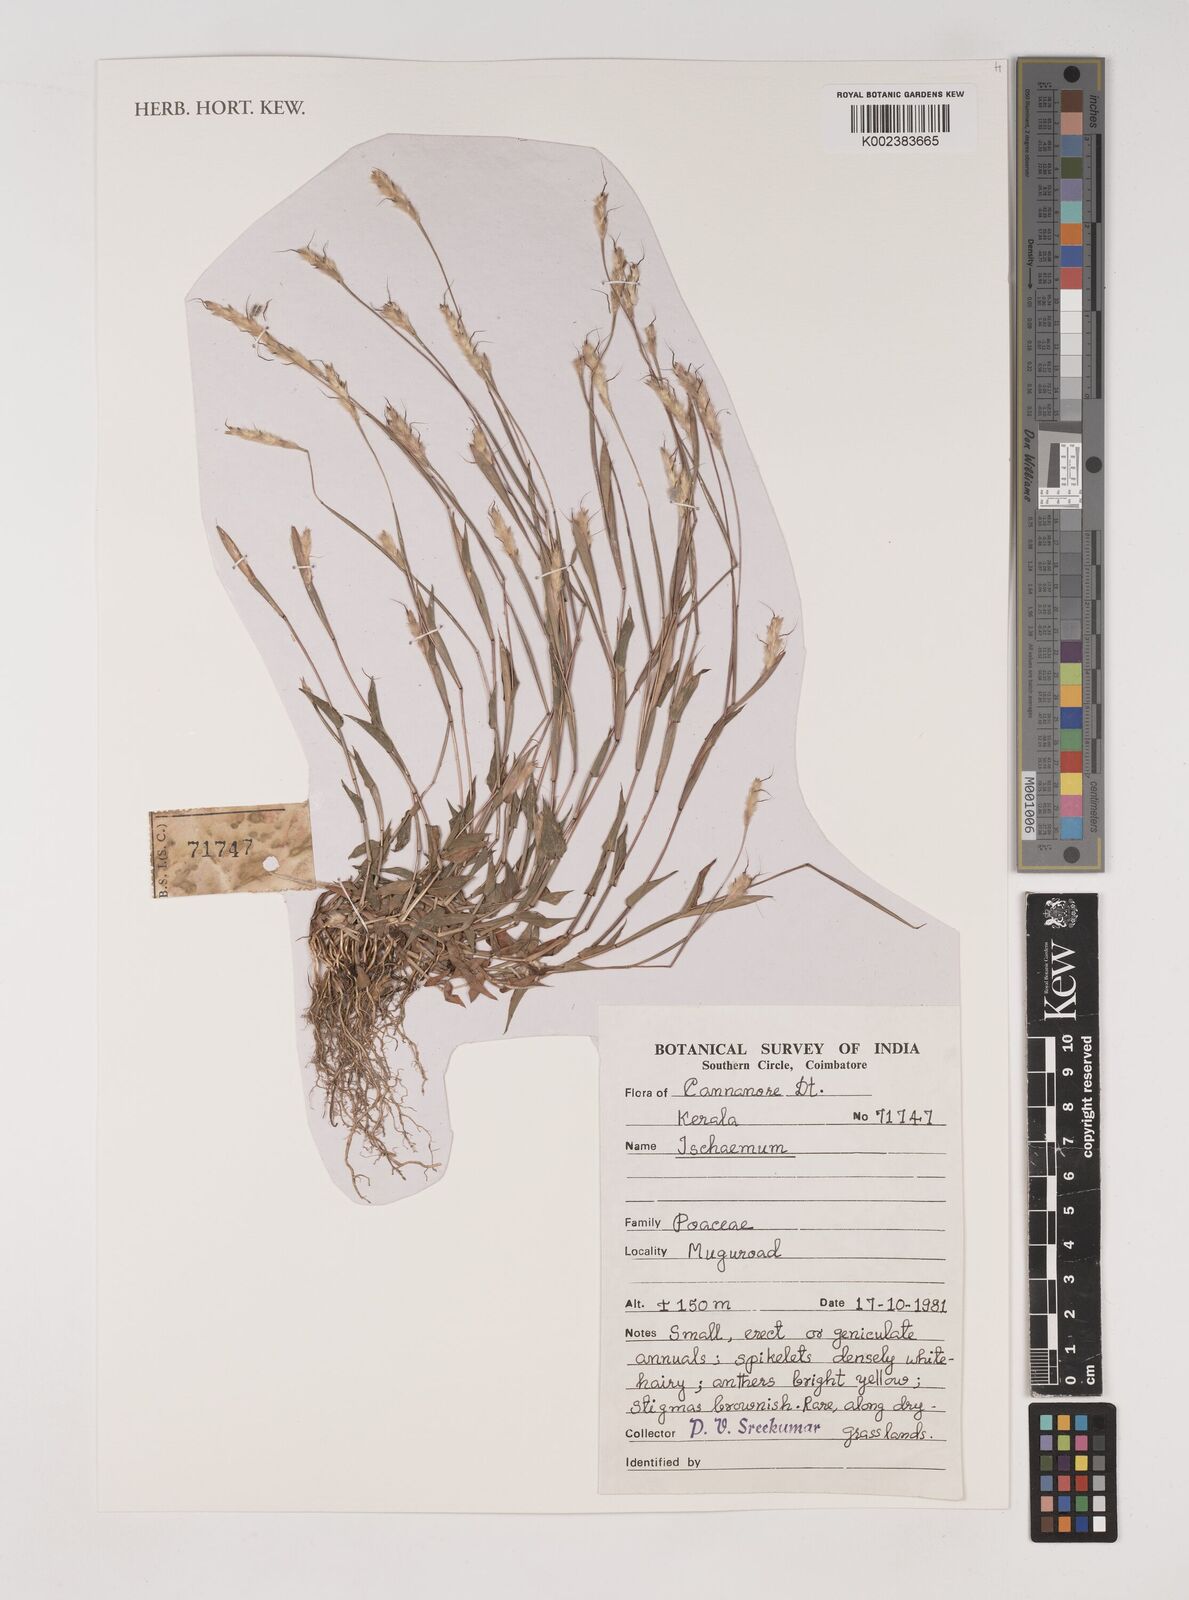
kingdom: Plantae
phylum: Tracheophyta
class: Liliopsida
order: Poales
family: Poaceae
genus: Ischaemum
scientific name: Ischaemum
